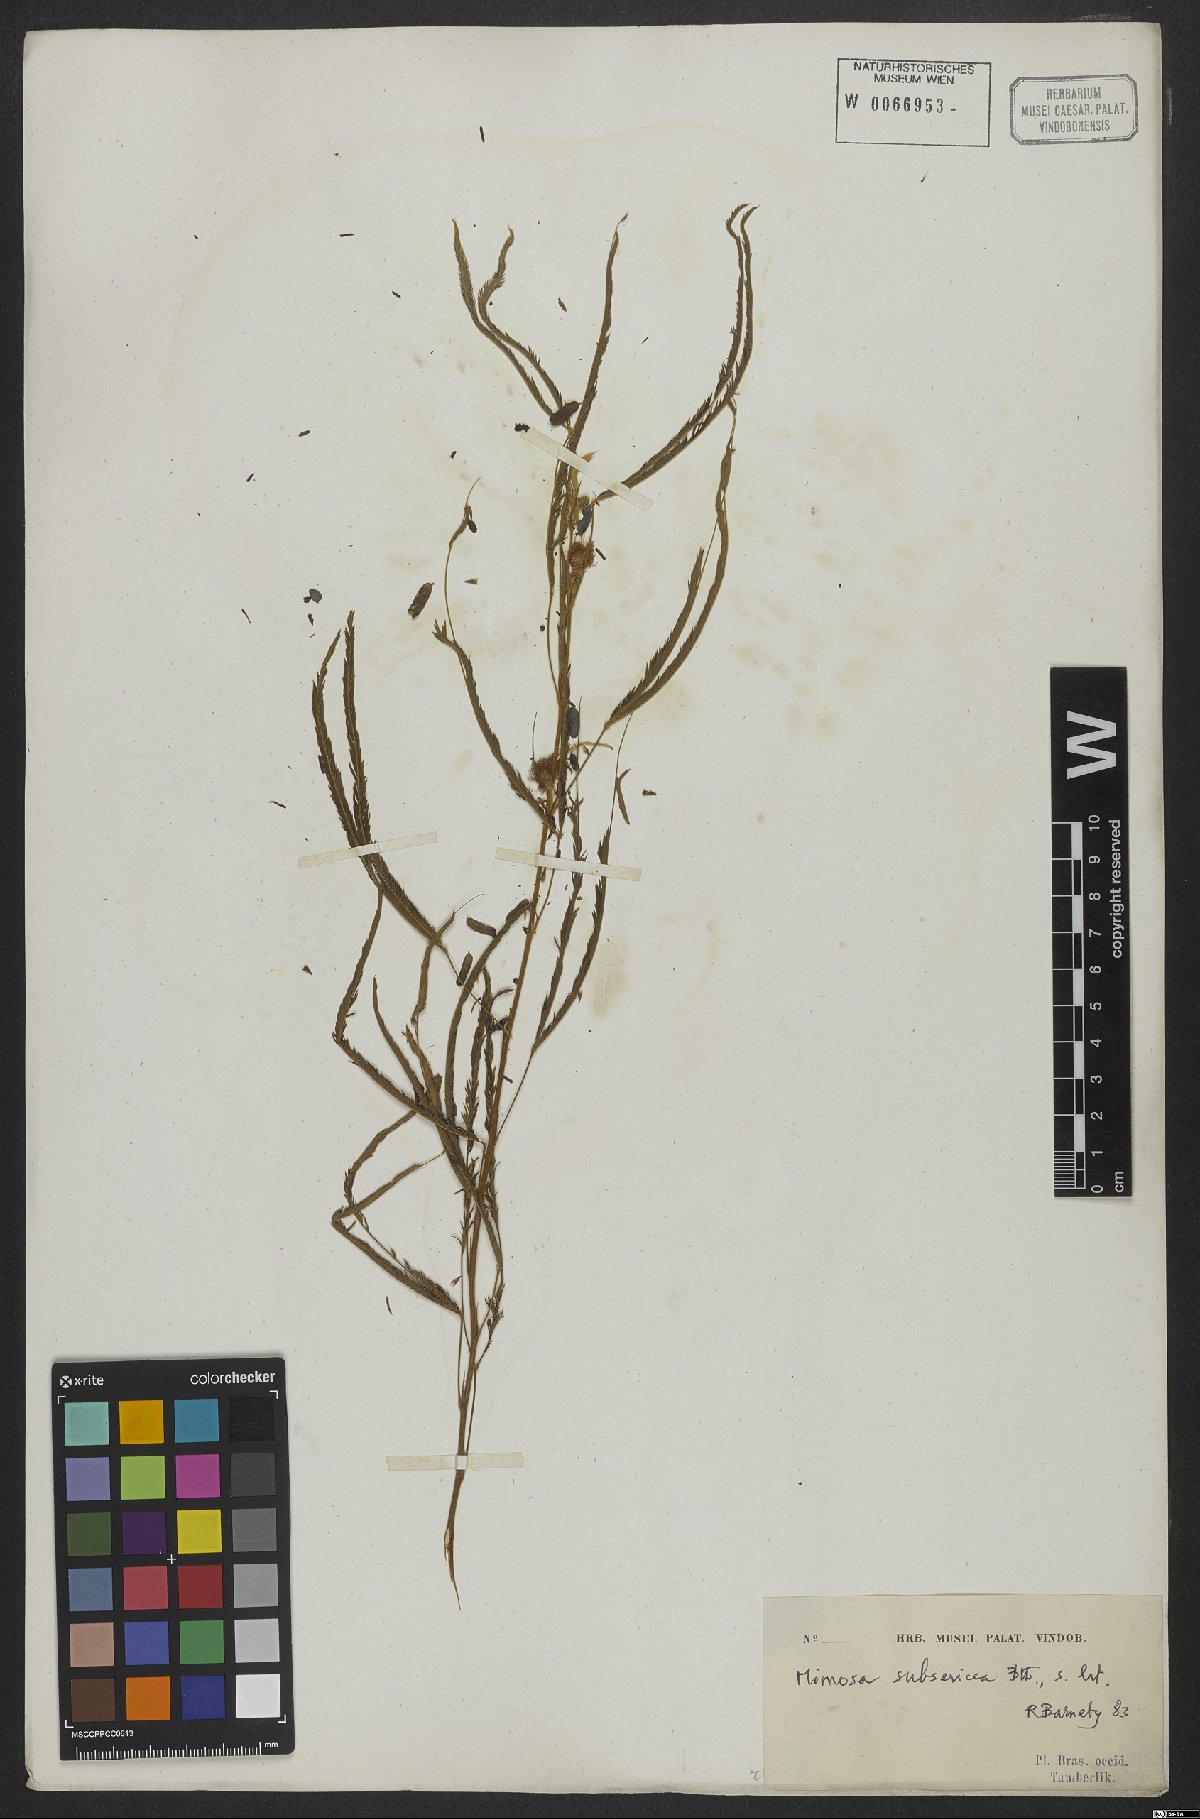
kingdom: Plantae
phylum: Tracheophyta
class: Magnoliopsida
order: Fabales
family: Fabaceae
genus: Mimosa
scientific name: Mimosa xanthocentra
